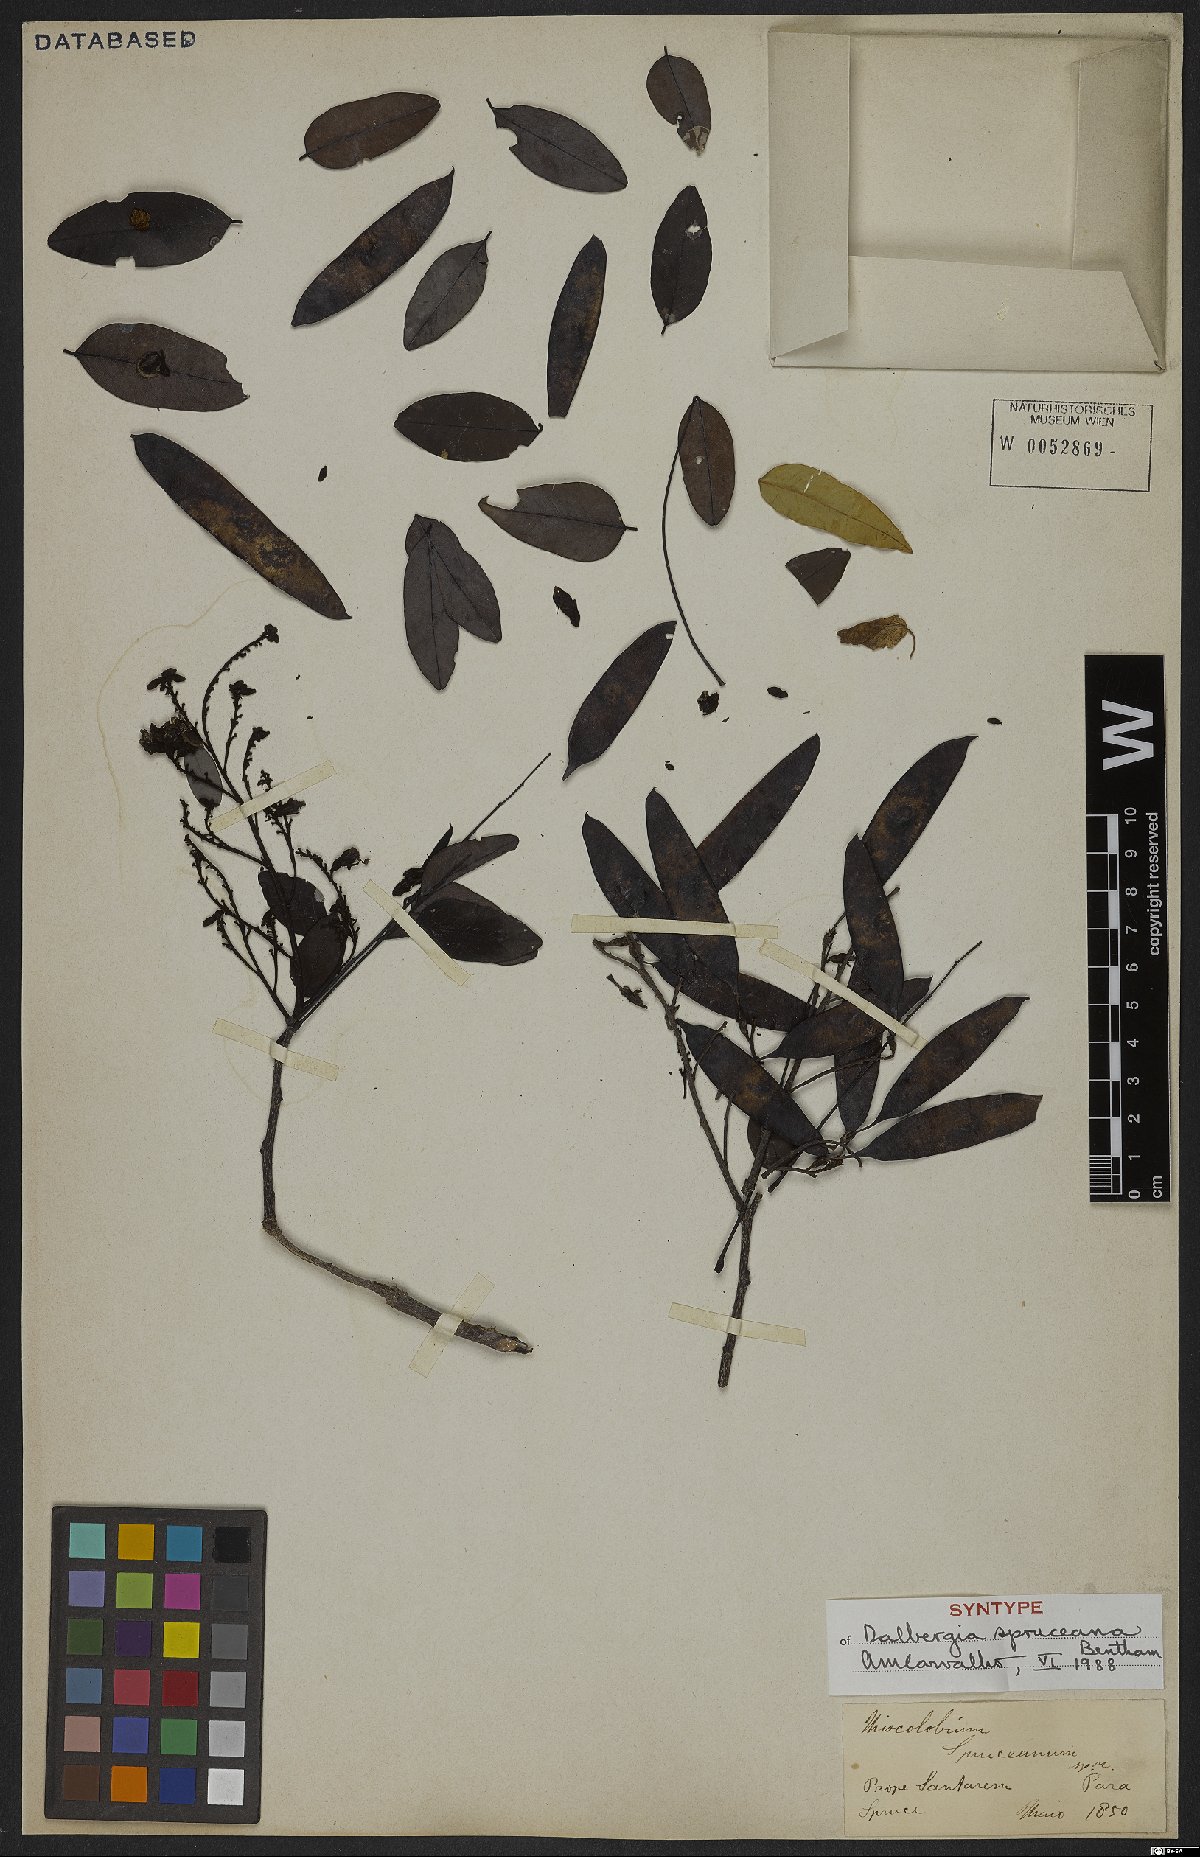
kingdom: Plantae
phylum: Tracheophyta
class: Magnoliopsida
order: Fabales
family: Fabaceae
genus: Dalbergia
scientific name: Dalbergia spruceana
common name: Amazon rosewood
